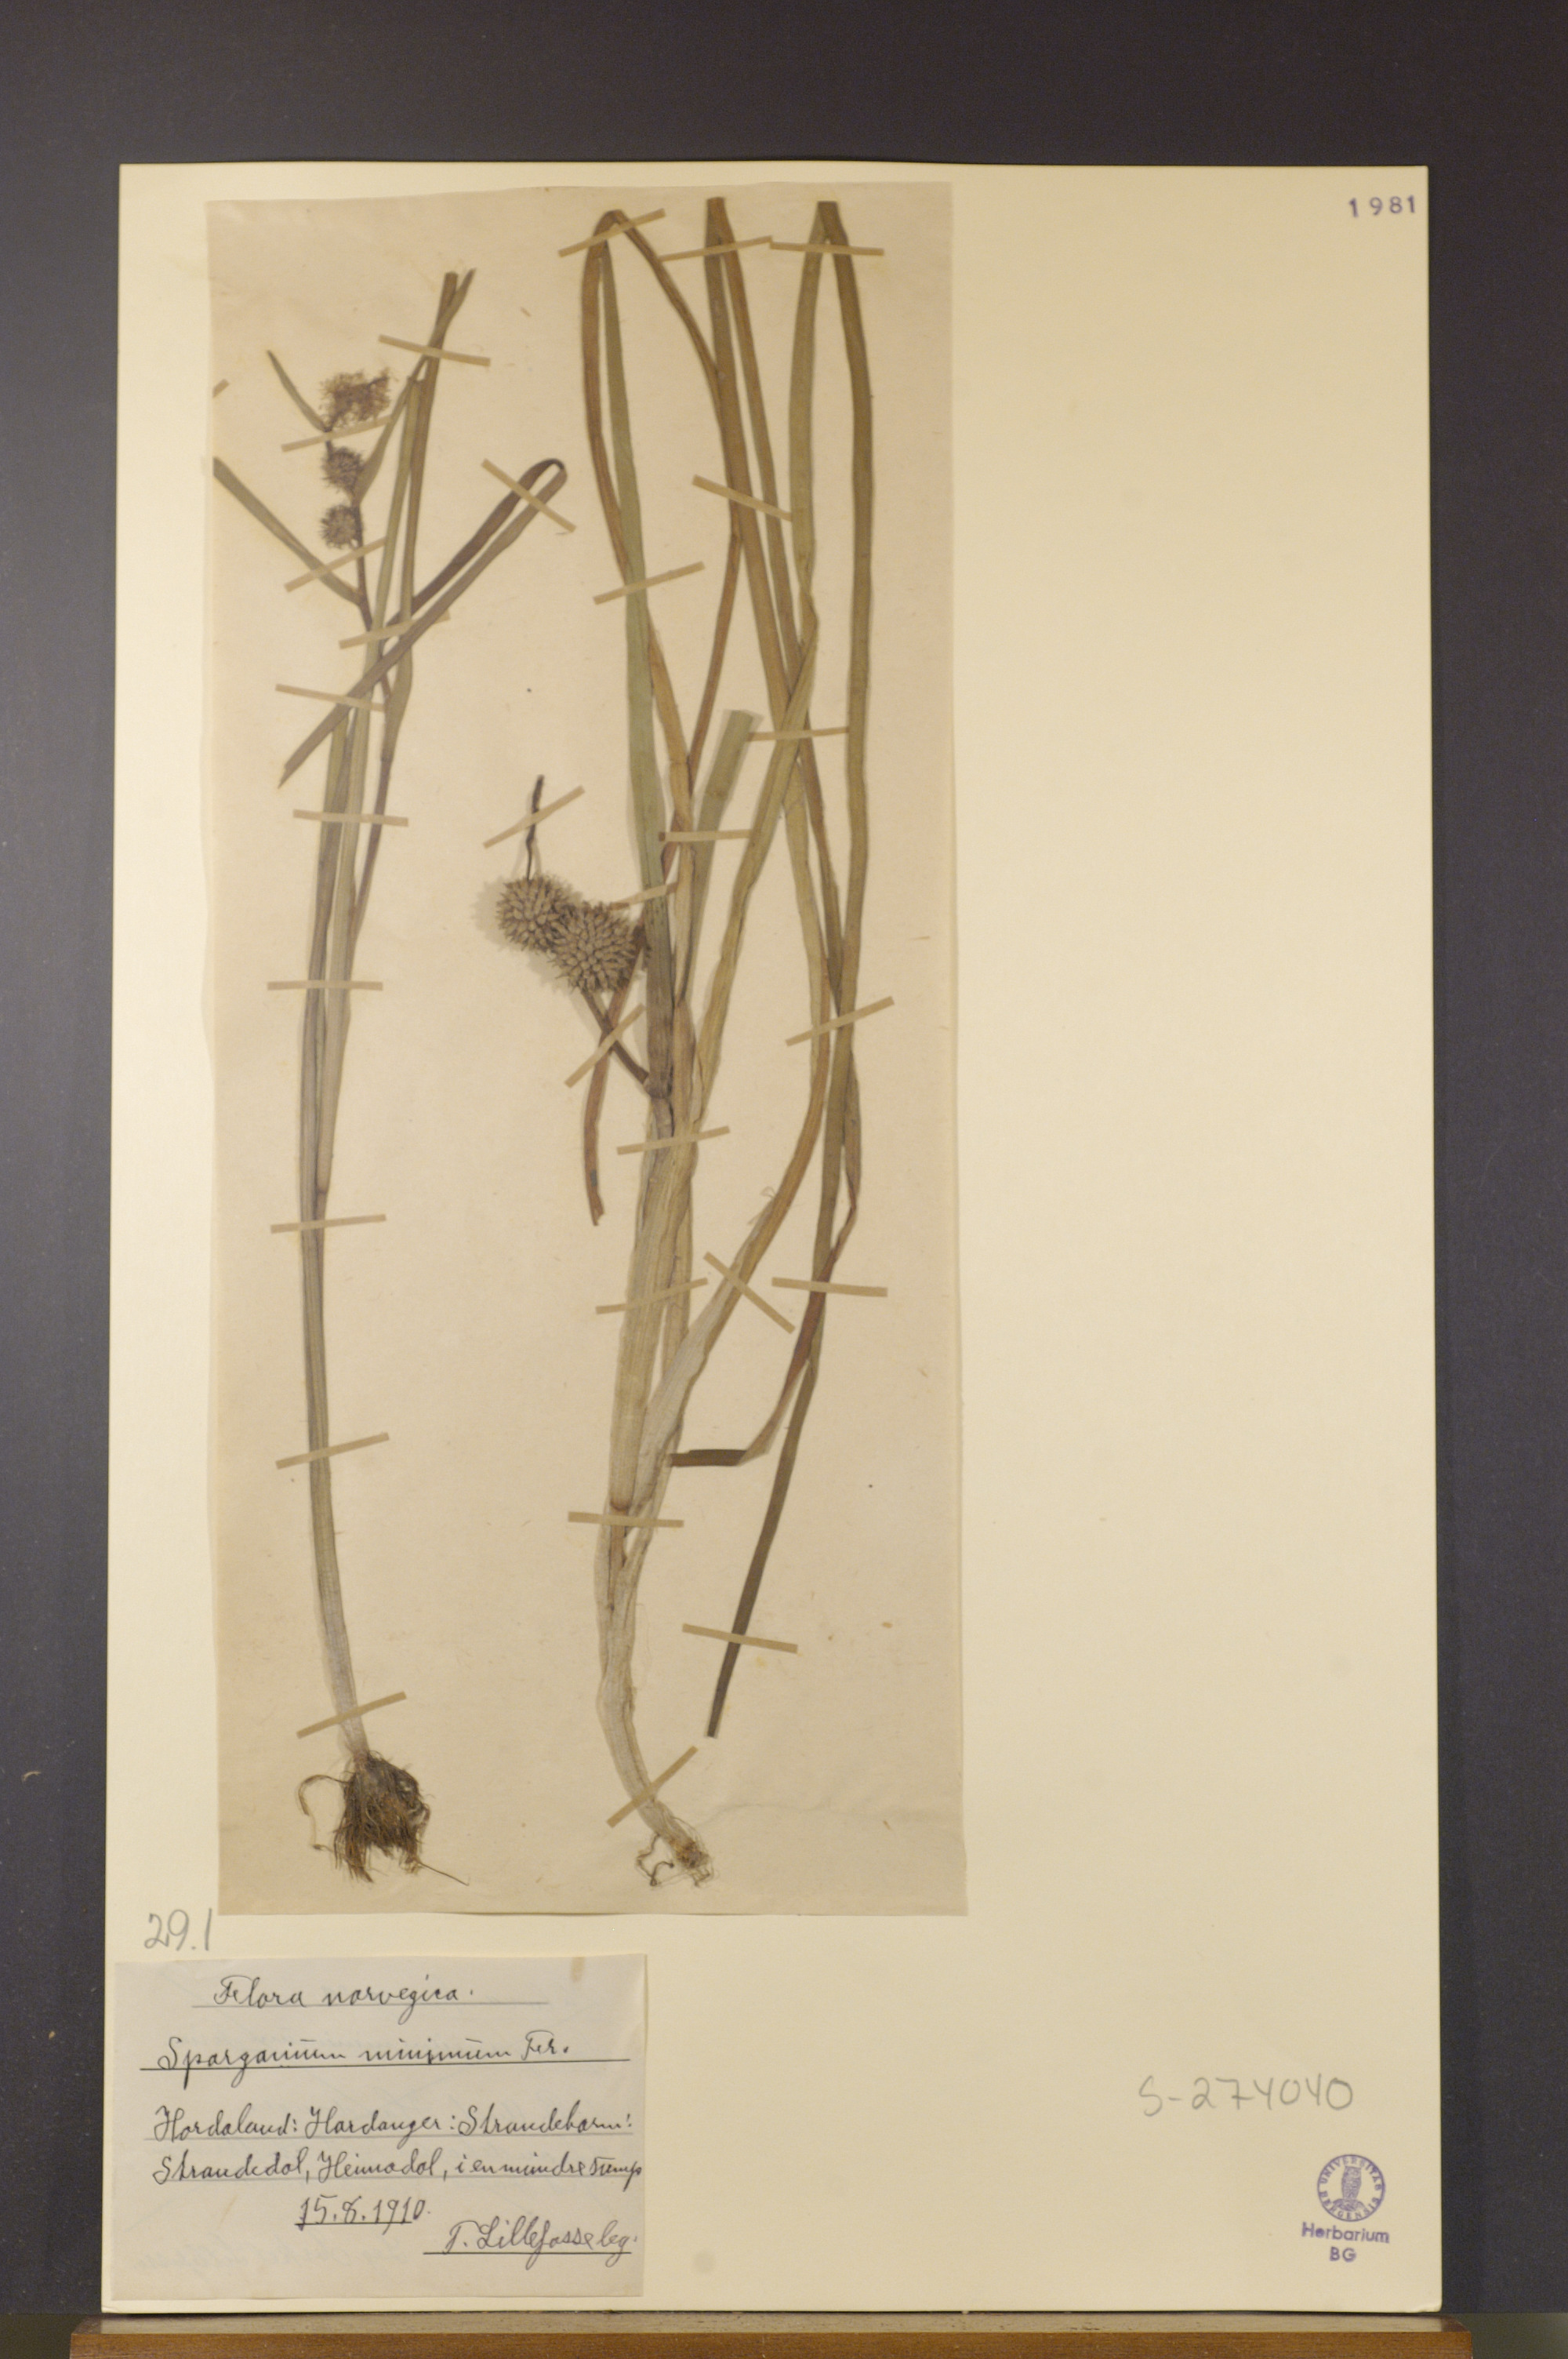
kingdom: Plantae
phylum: Tracheophyta
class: Liliopsida
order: Poales
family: Typhaceae
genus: Sparganium
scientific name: Sparganium natans
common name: Least bur-reed
